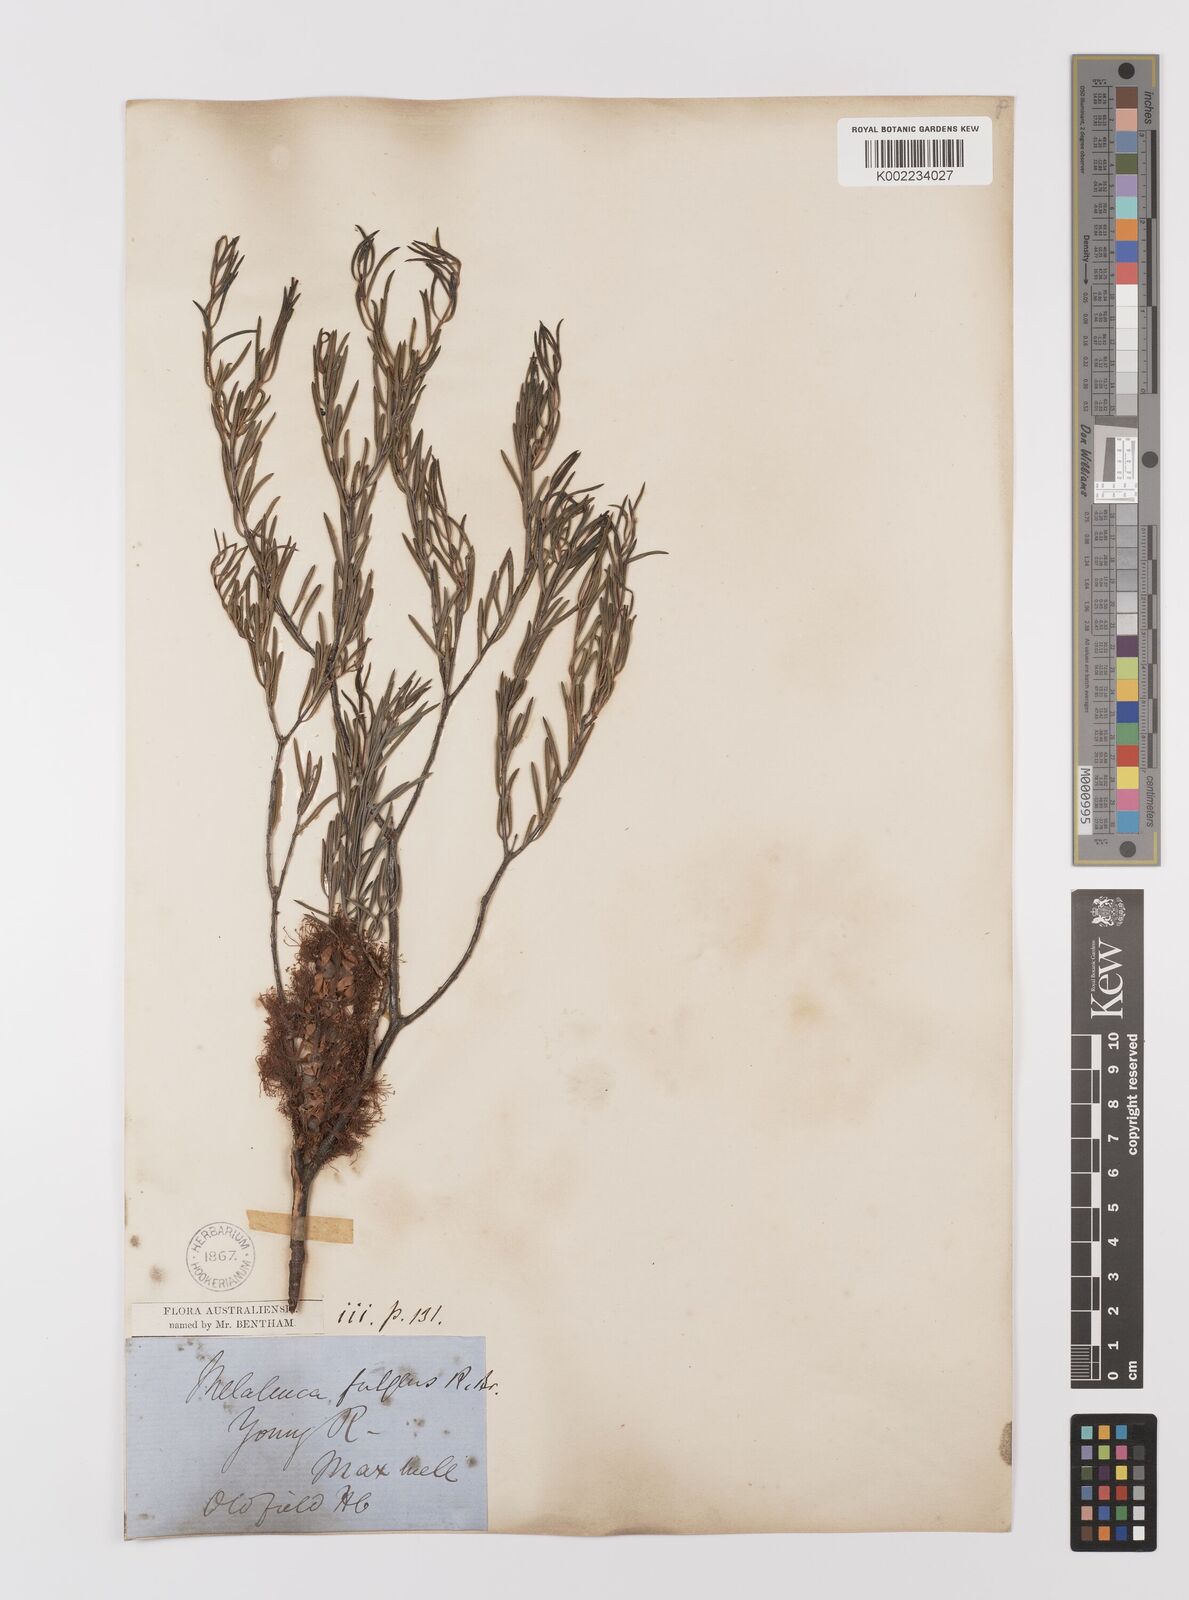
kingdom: Plantae
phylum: Tracheophyta
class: Magnoliopsida
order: Myrtales
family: Myrtaceae
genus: Melaleuca
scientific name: Melaleuca fulgens
